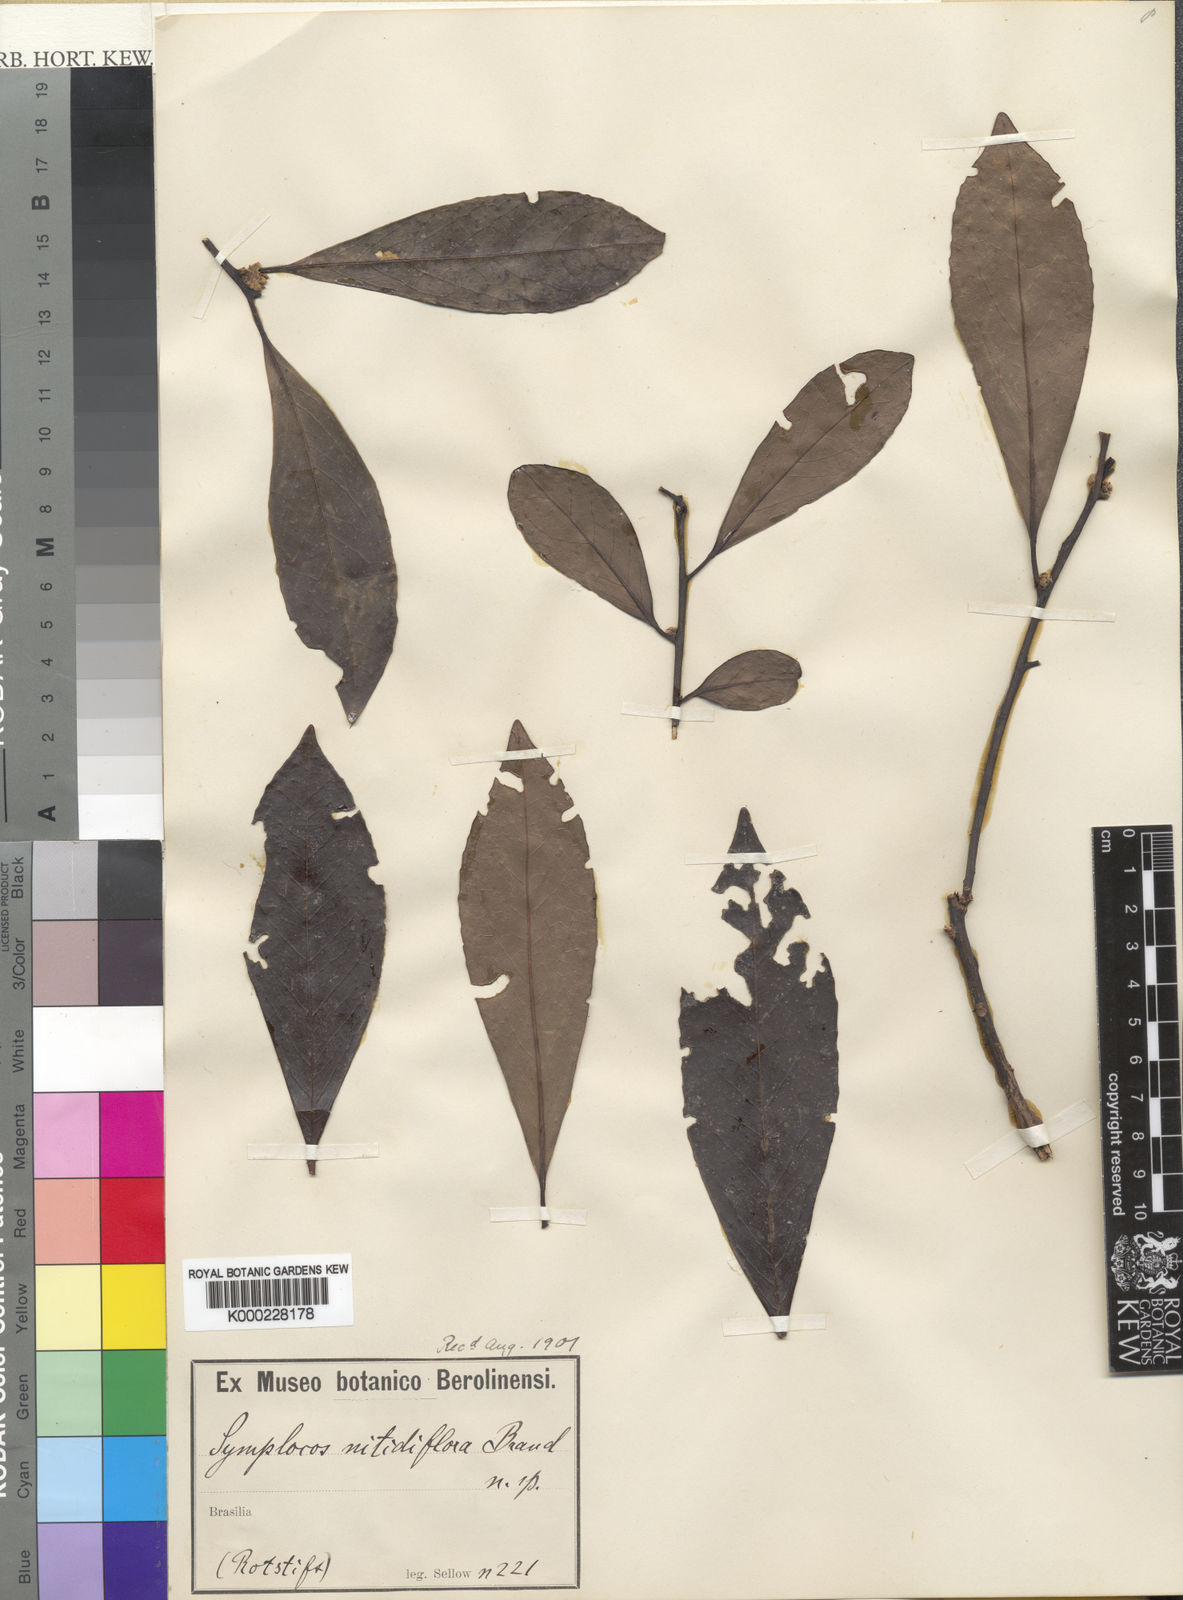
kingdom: Plantae
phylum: Tracheophyta
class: Magnoliopsida
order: Ericales
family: Symplocaceae
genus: Symplocos
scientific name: Symplocos nitidiflora
